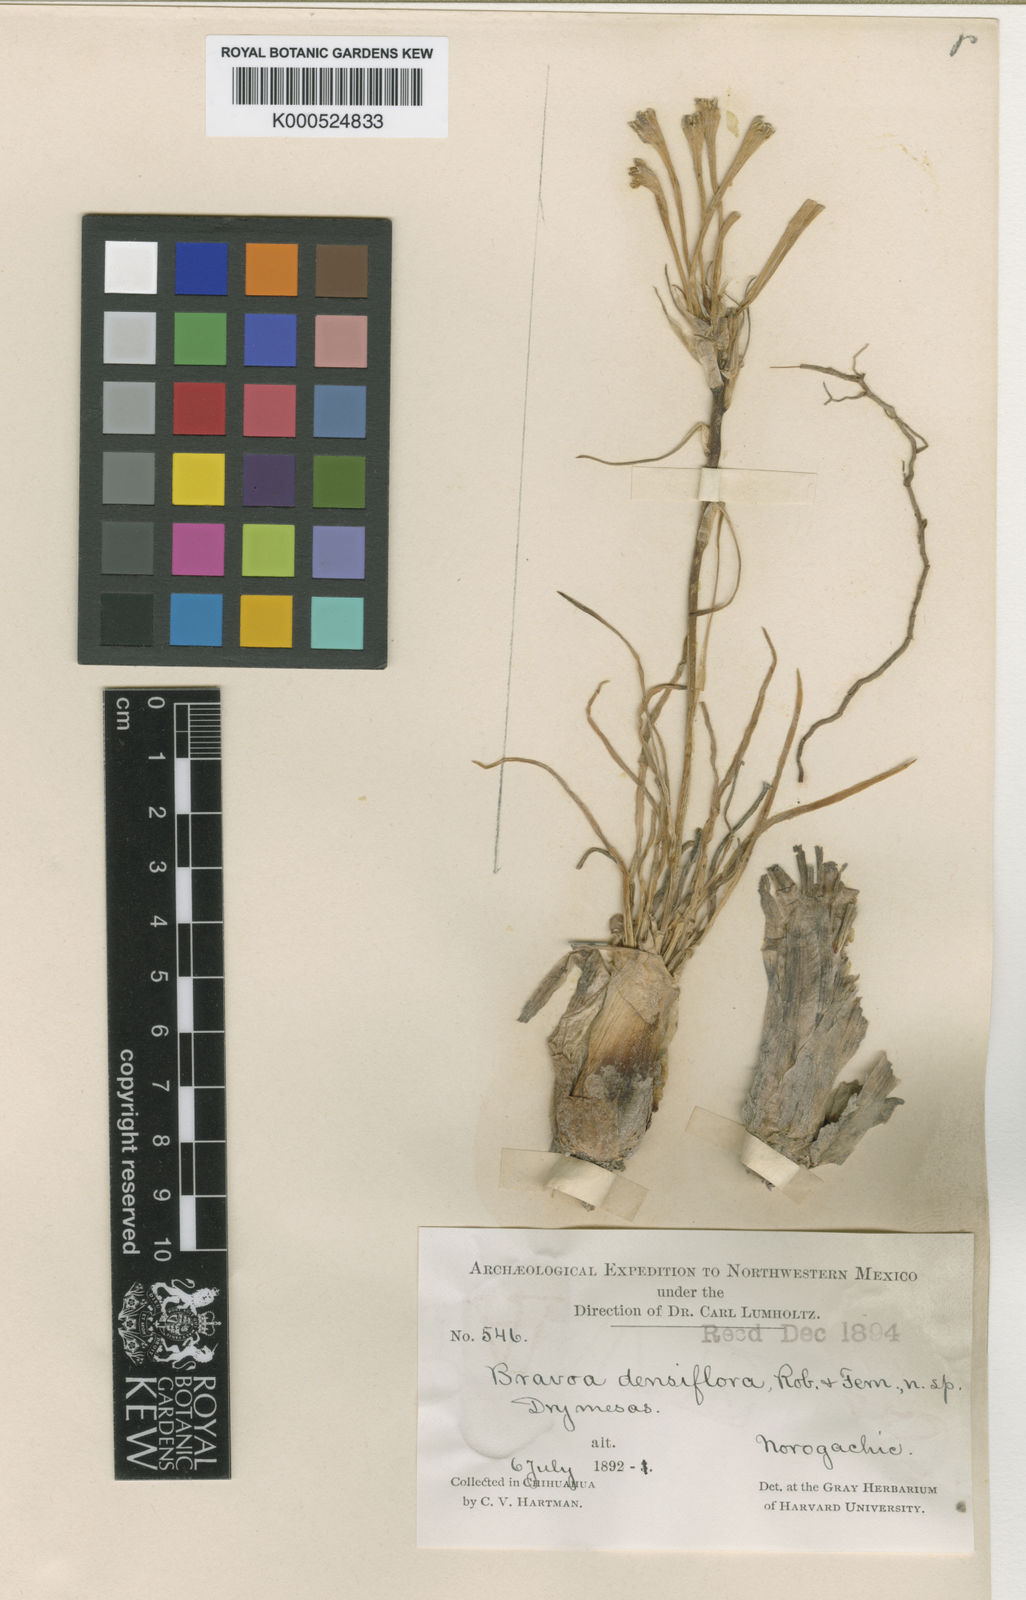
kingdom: Plantae
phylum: Tracheophyta
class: Liliopsida
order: Asparagales
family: Asparagaceae
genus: Agave
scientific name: Agave confertiflora
